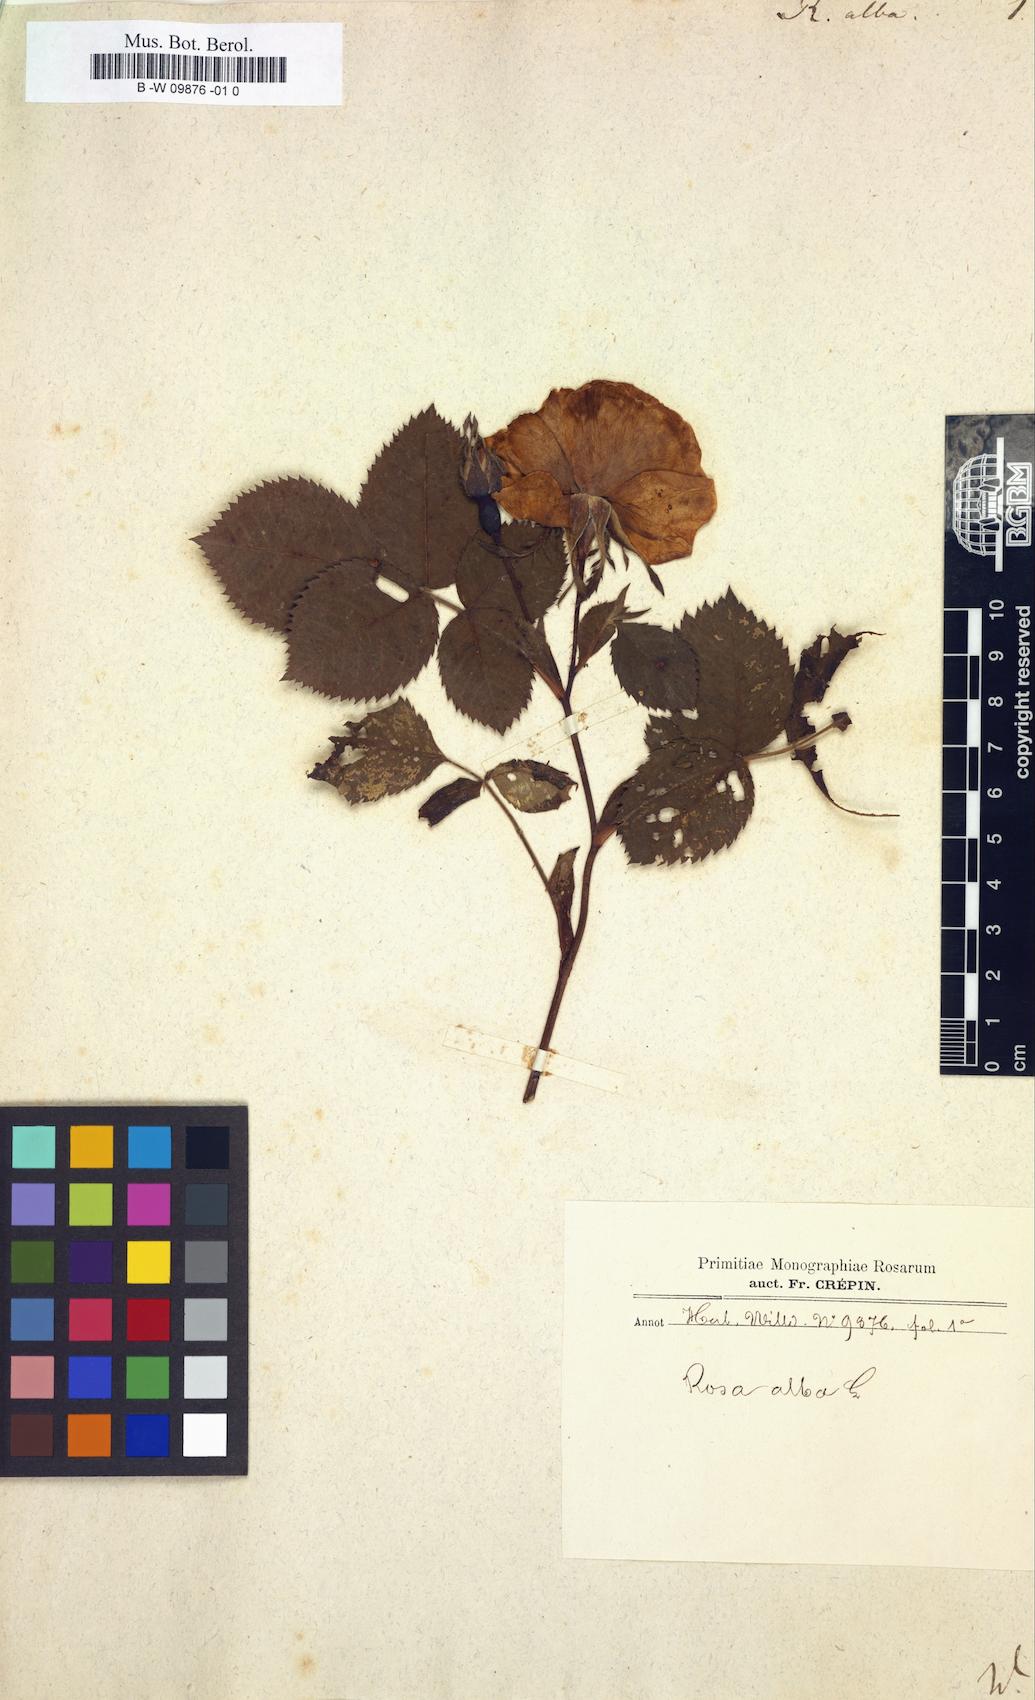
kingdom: Plantae
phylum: Tracheophyta
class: Magnoliopsida
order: Rosales
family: Rosaceae
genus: Rosa
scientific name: Rosa alba
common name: White rose
